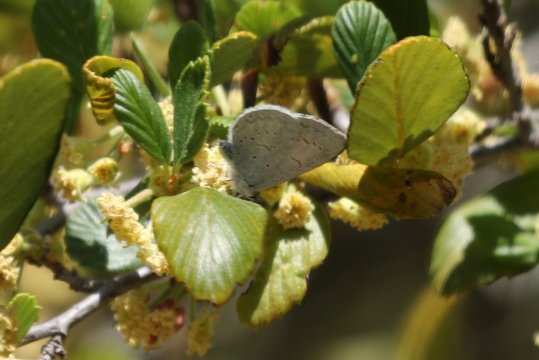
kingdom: Animalia
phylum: Arthropoda
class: Insecta
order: Lepidoptera
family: Lycaenidae
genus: Celastrina
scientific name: Celastrina ladon
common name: Echo Azure
